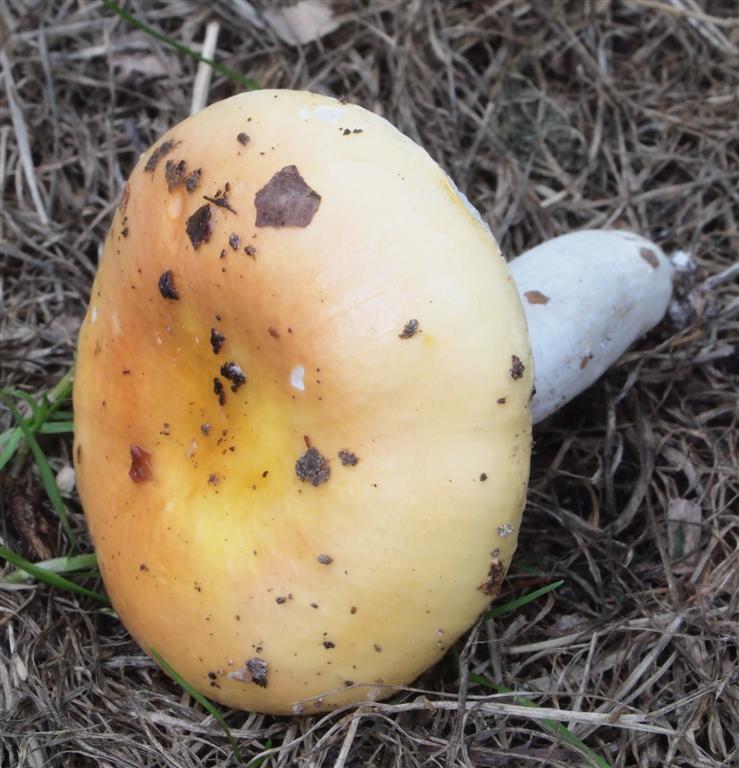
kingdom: Fungi
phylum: Basidiomycota
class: Agaricomycetes
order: Russulales
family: Russulaceae
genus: Russula
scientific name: Russula risigallina
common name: abrikos-skørhat
